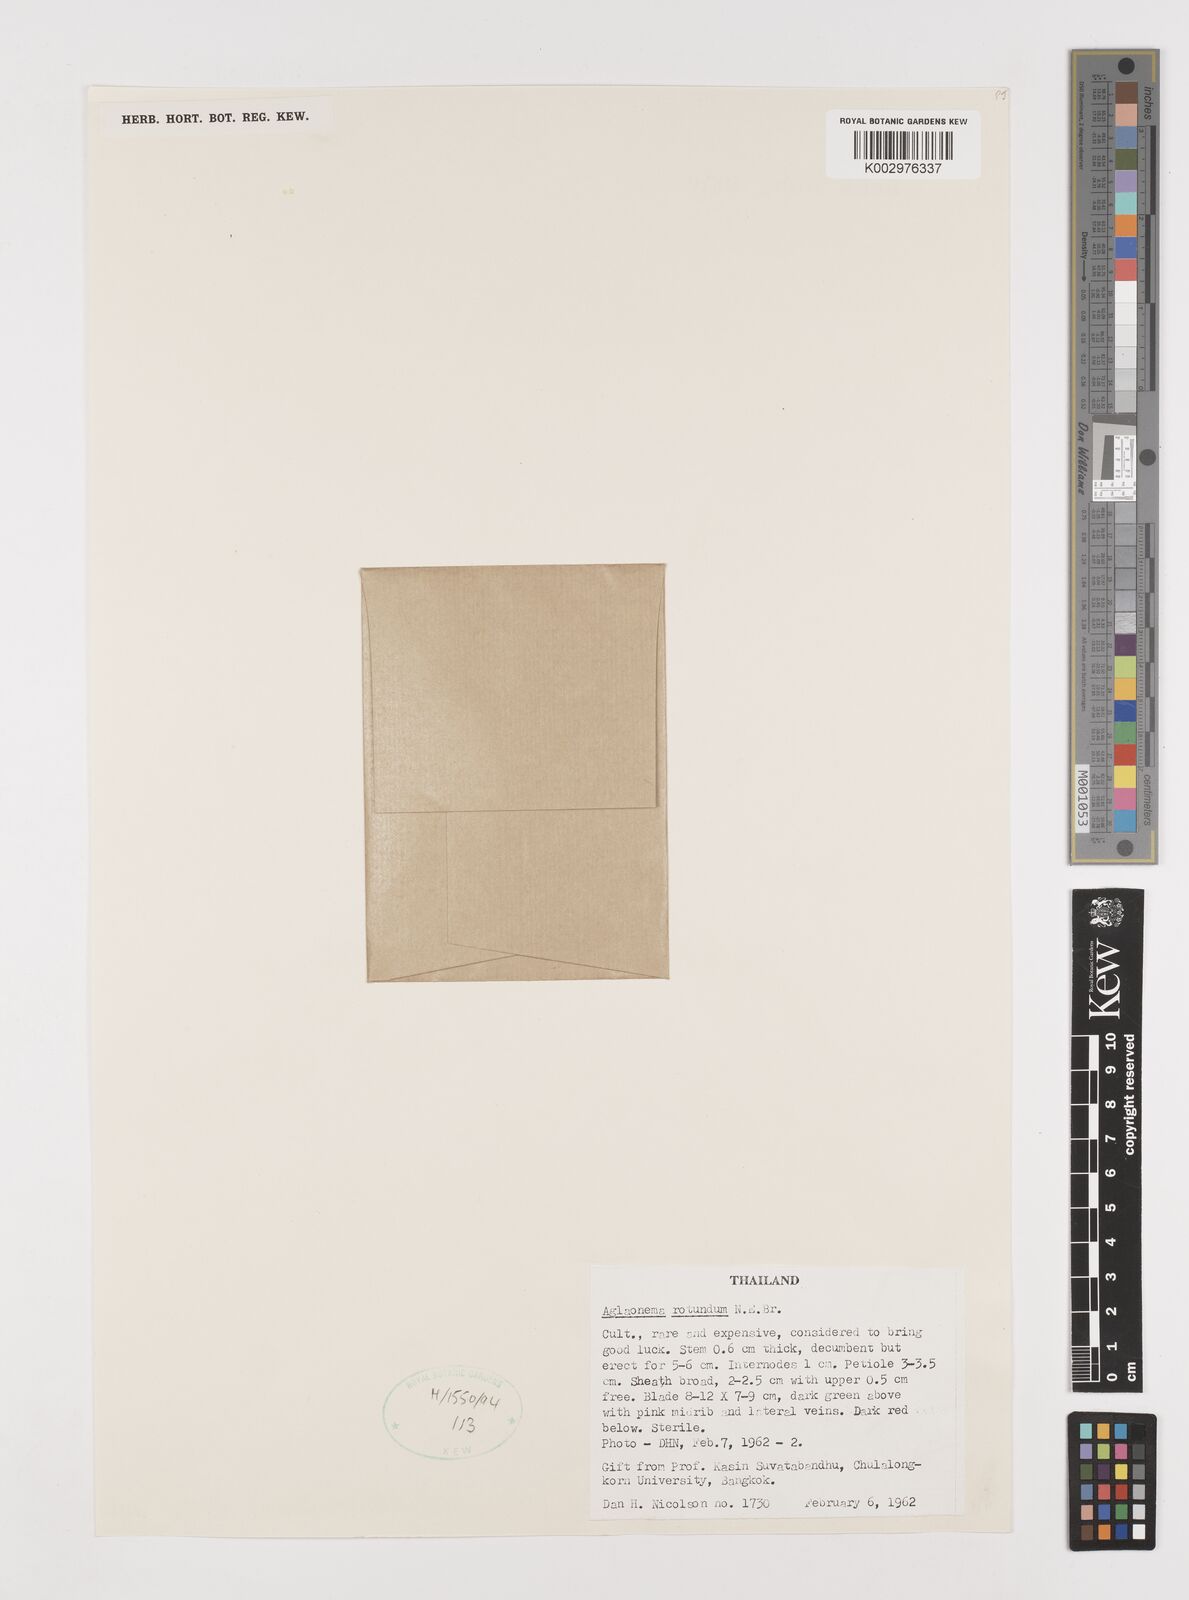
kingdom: Plantae
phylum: Tracheophyta
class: Liliopsida
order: Alismatales
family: Araceae
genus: Aglaonema
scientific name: Aglaonema rotundum
